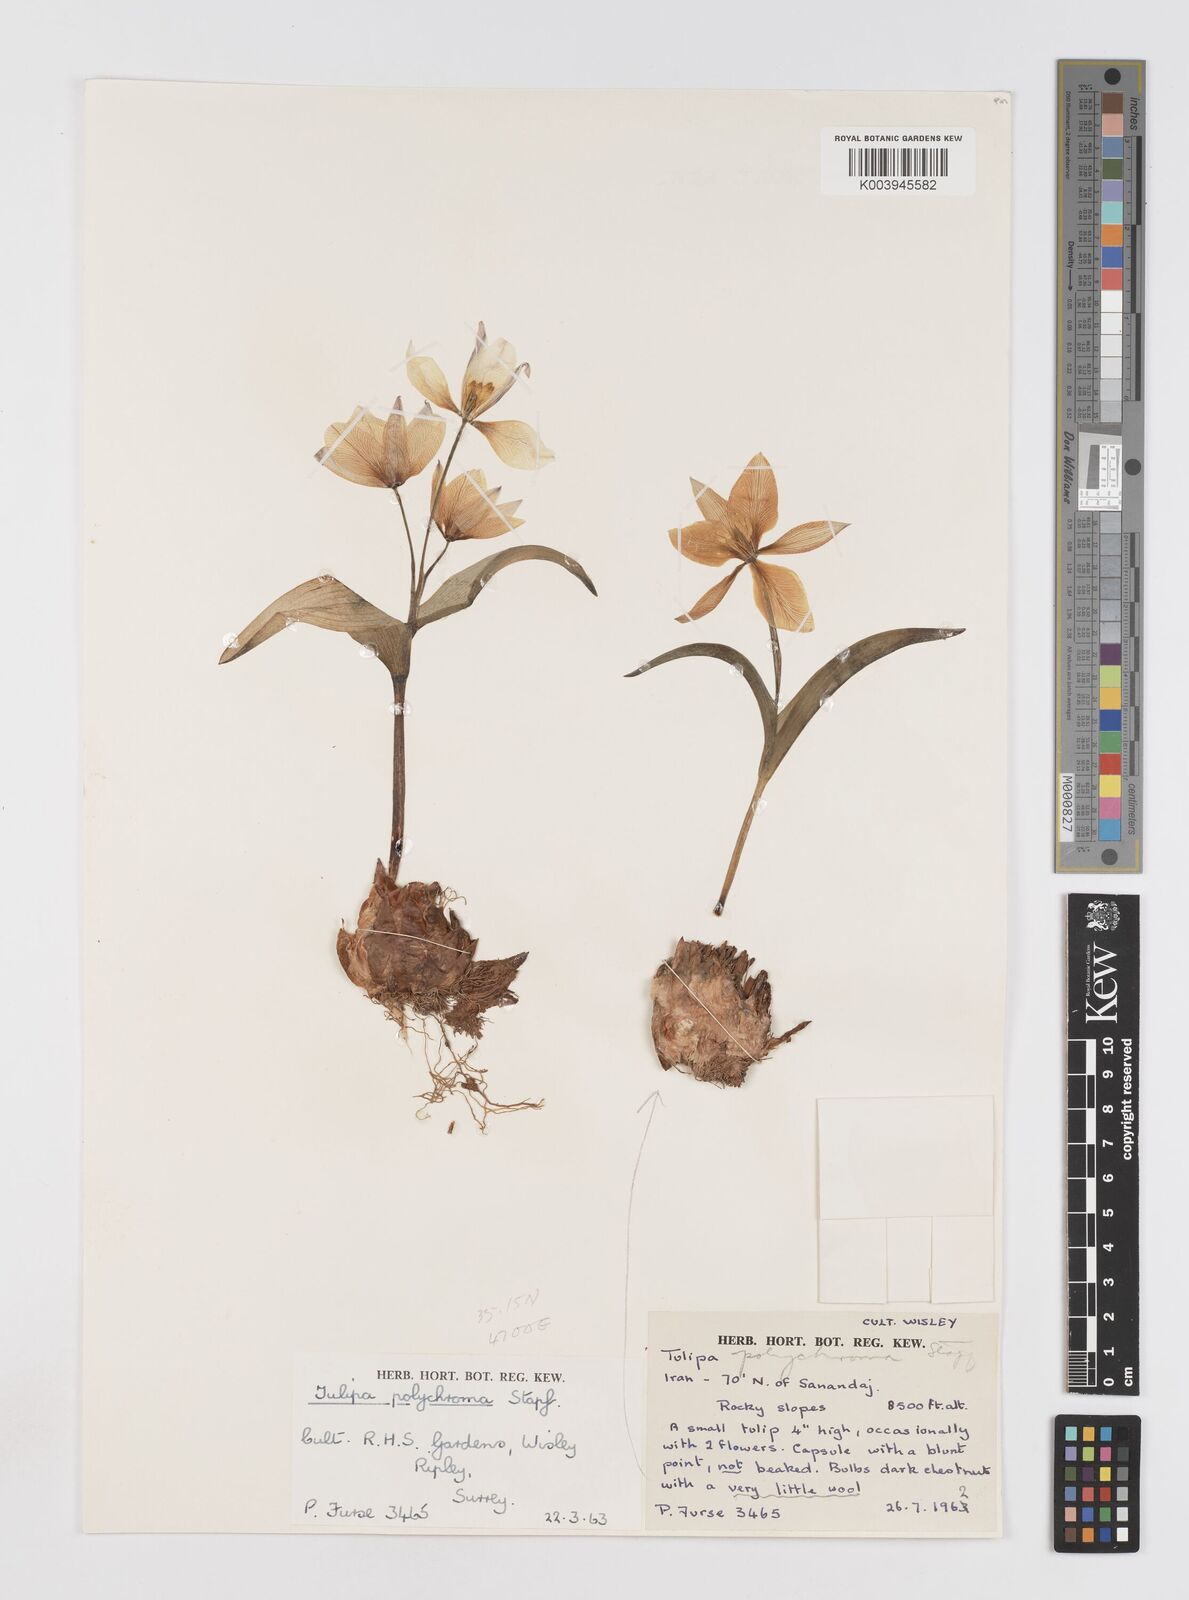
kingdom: Plantae
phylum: Tracheophyta
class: Liliopsida
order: Liliales
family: Liliaceae
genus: Tulipa
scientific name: Tulipa biflora
